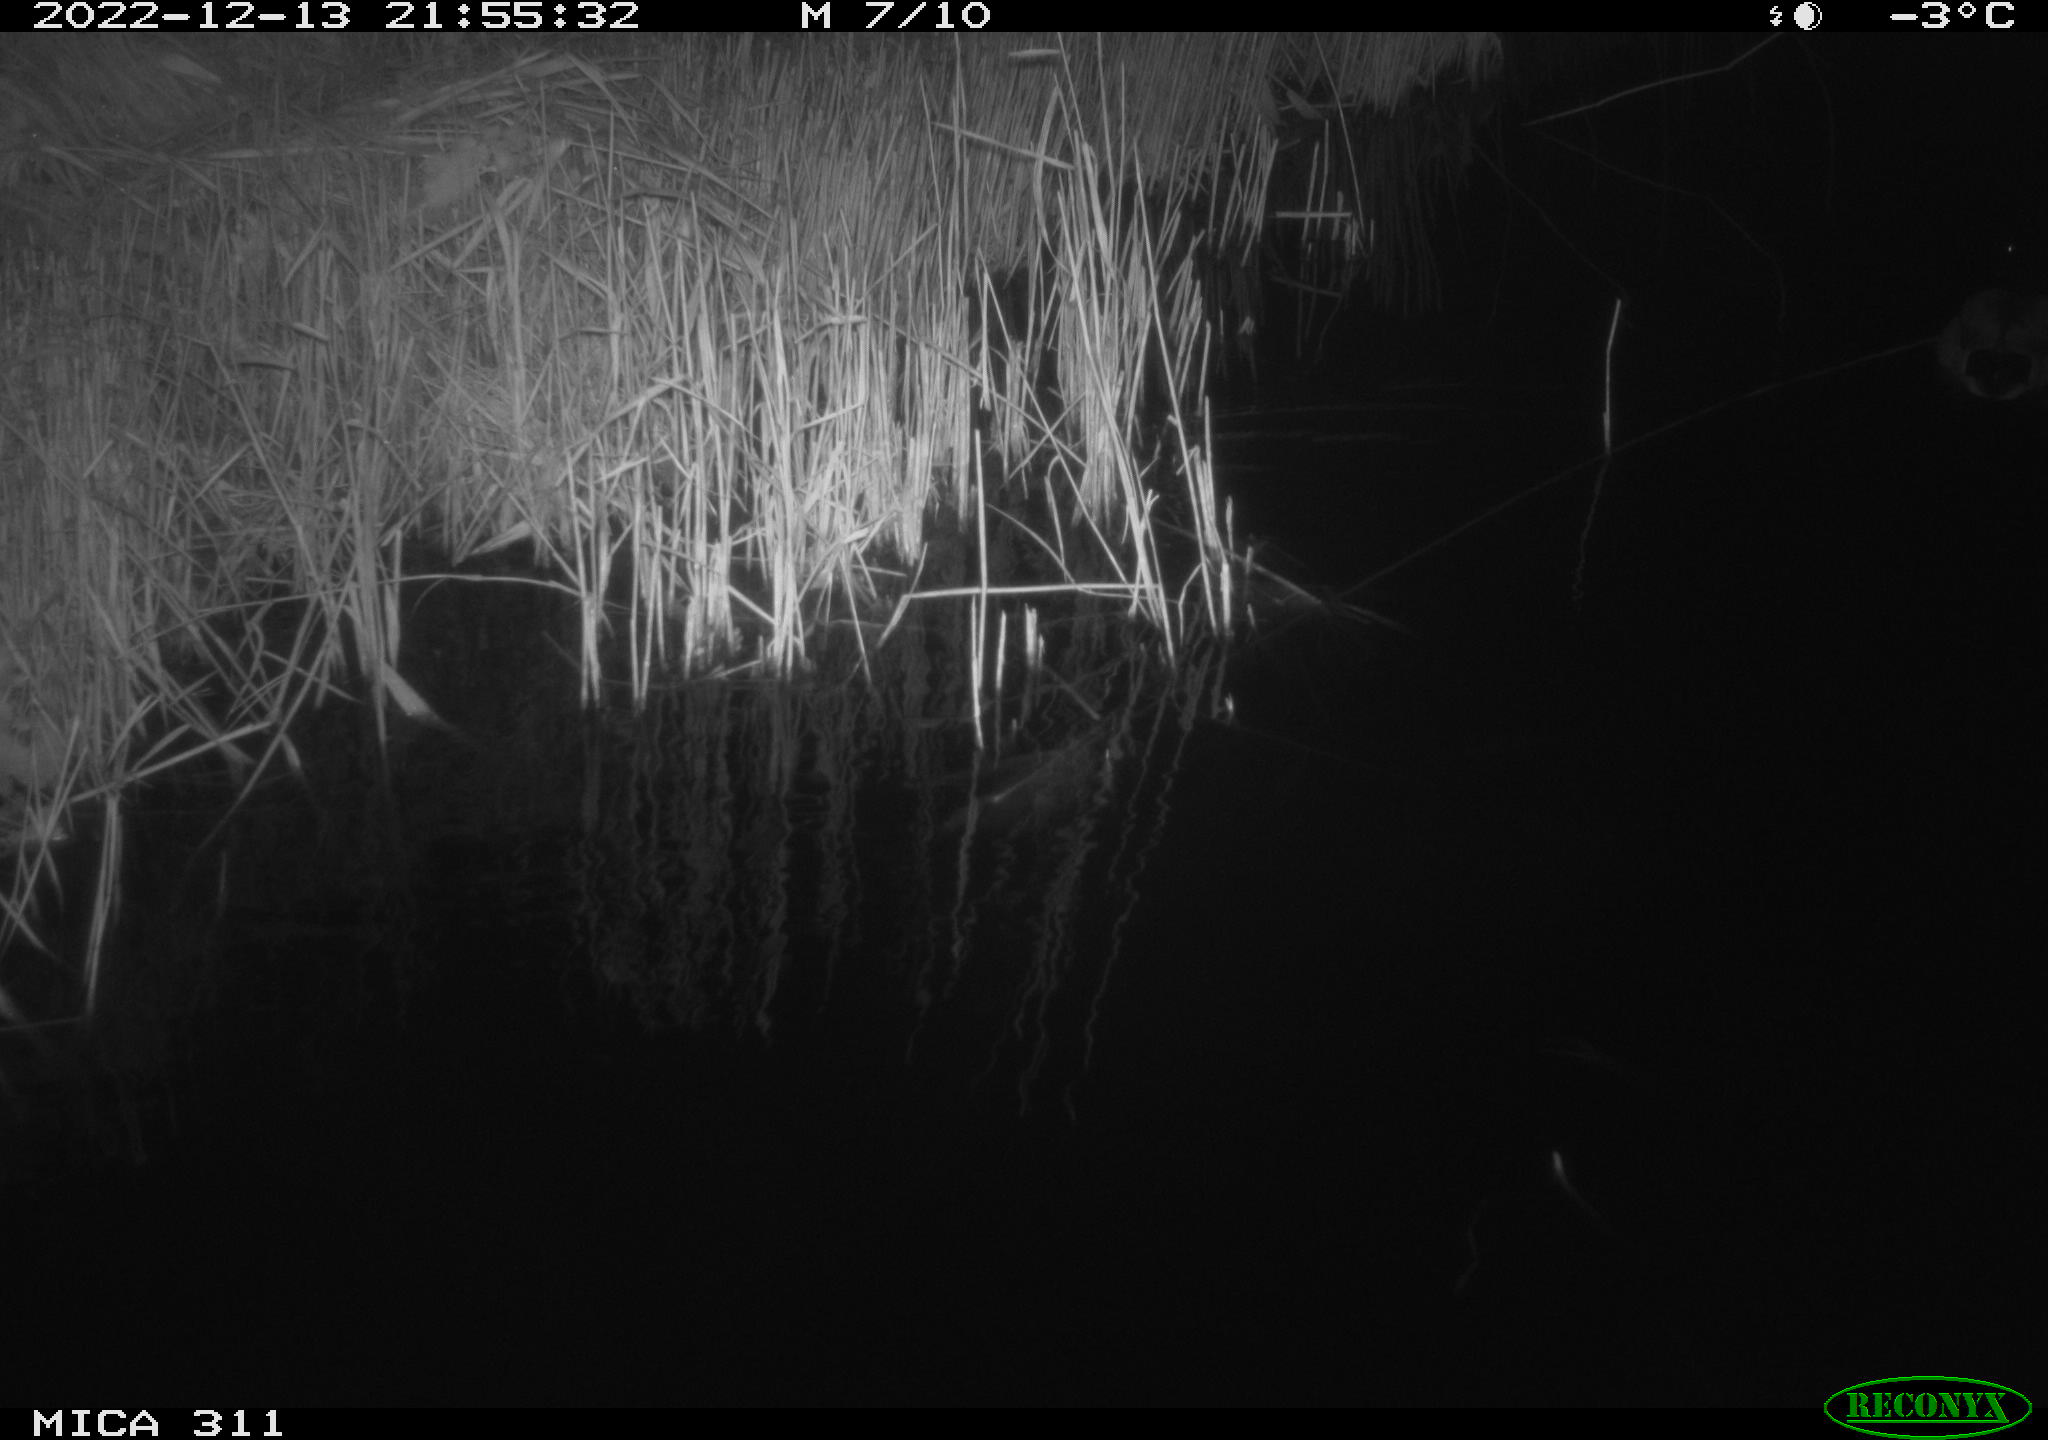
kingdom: Animalia
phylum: Chordata
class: Aves
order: Anseriformes
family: Anatidae
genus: Anas
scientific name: Anas
